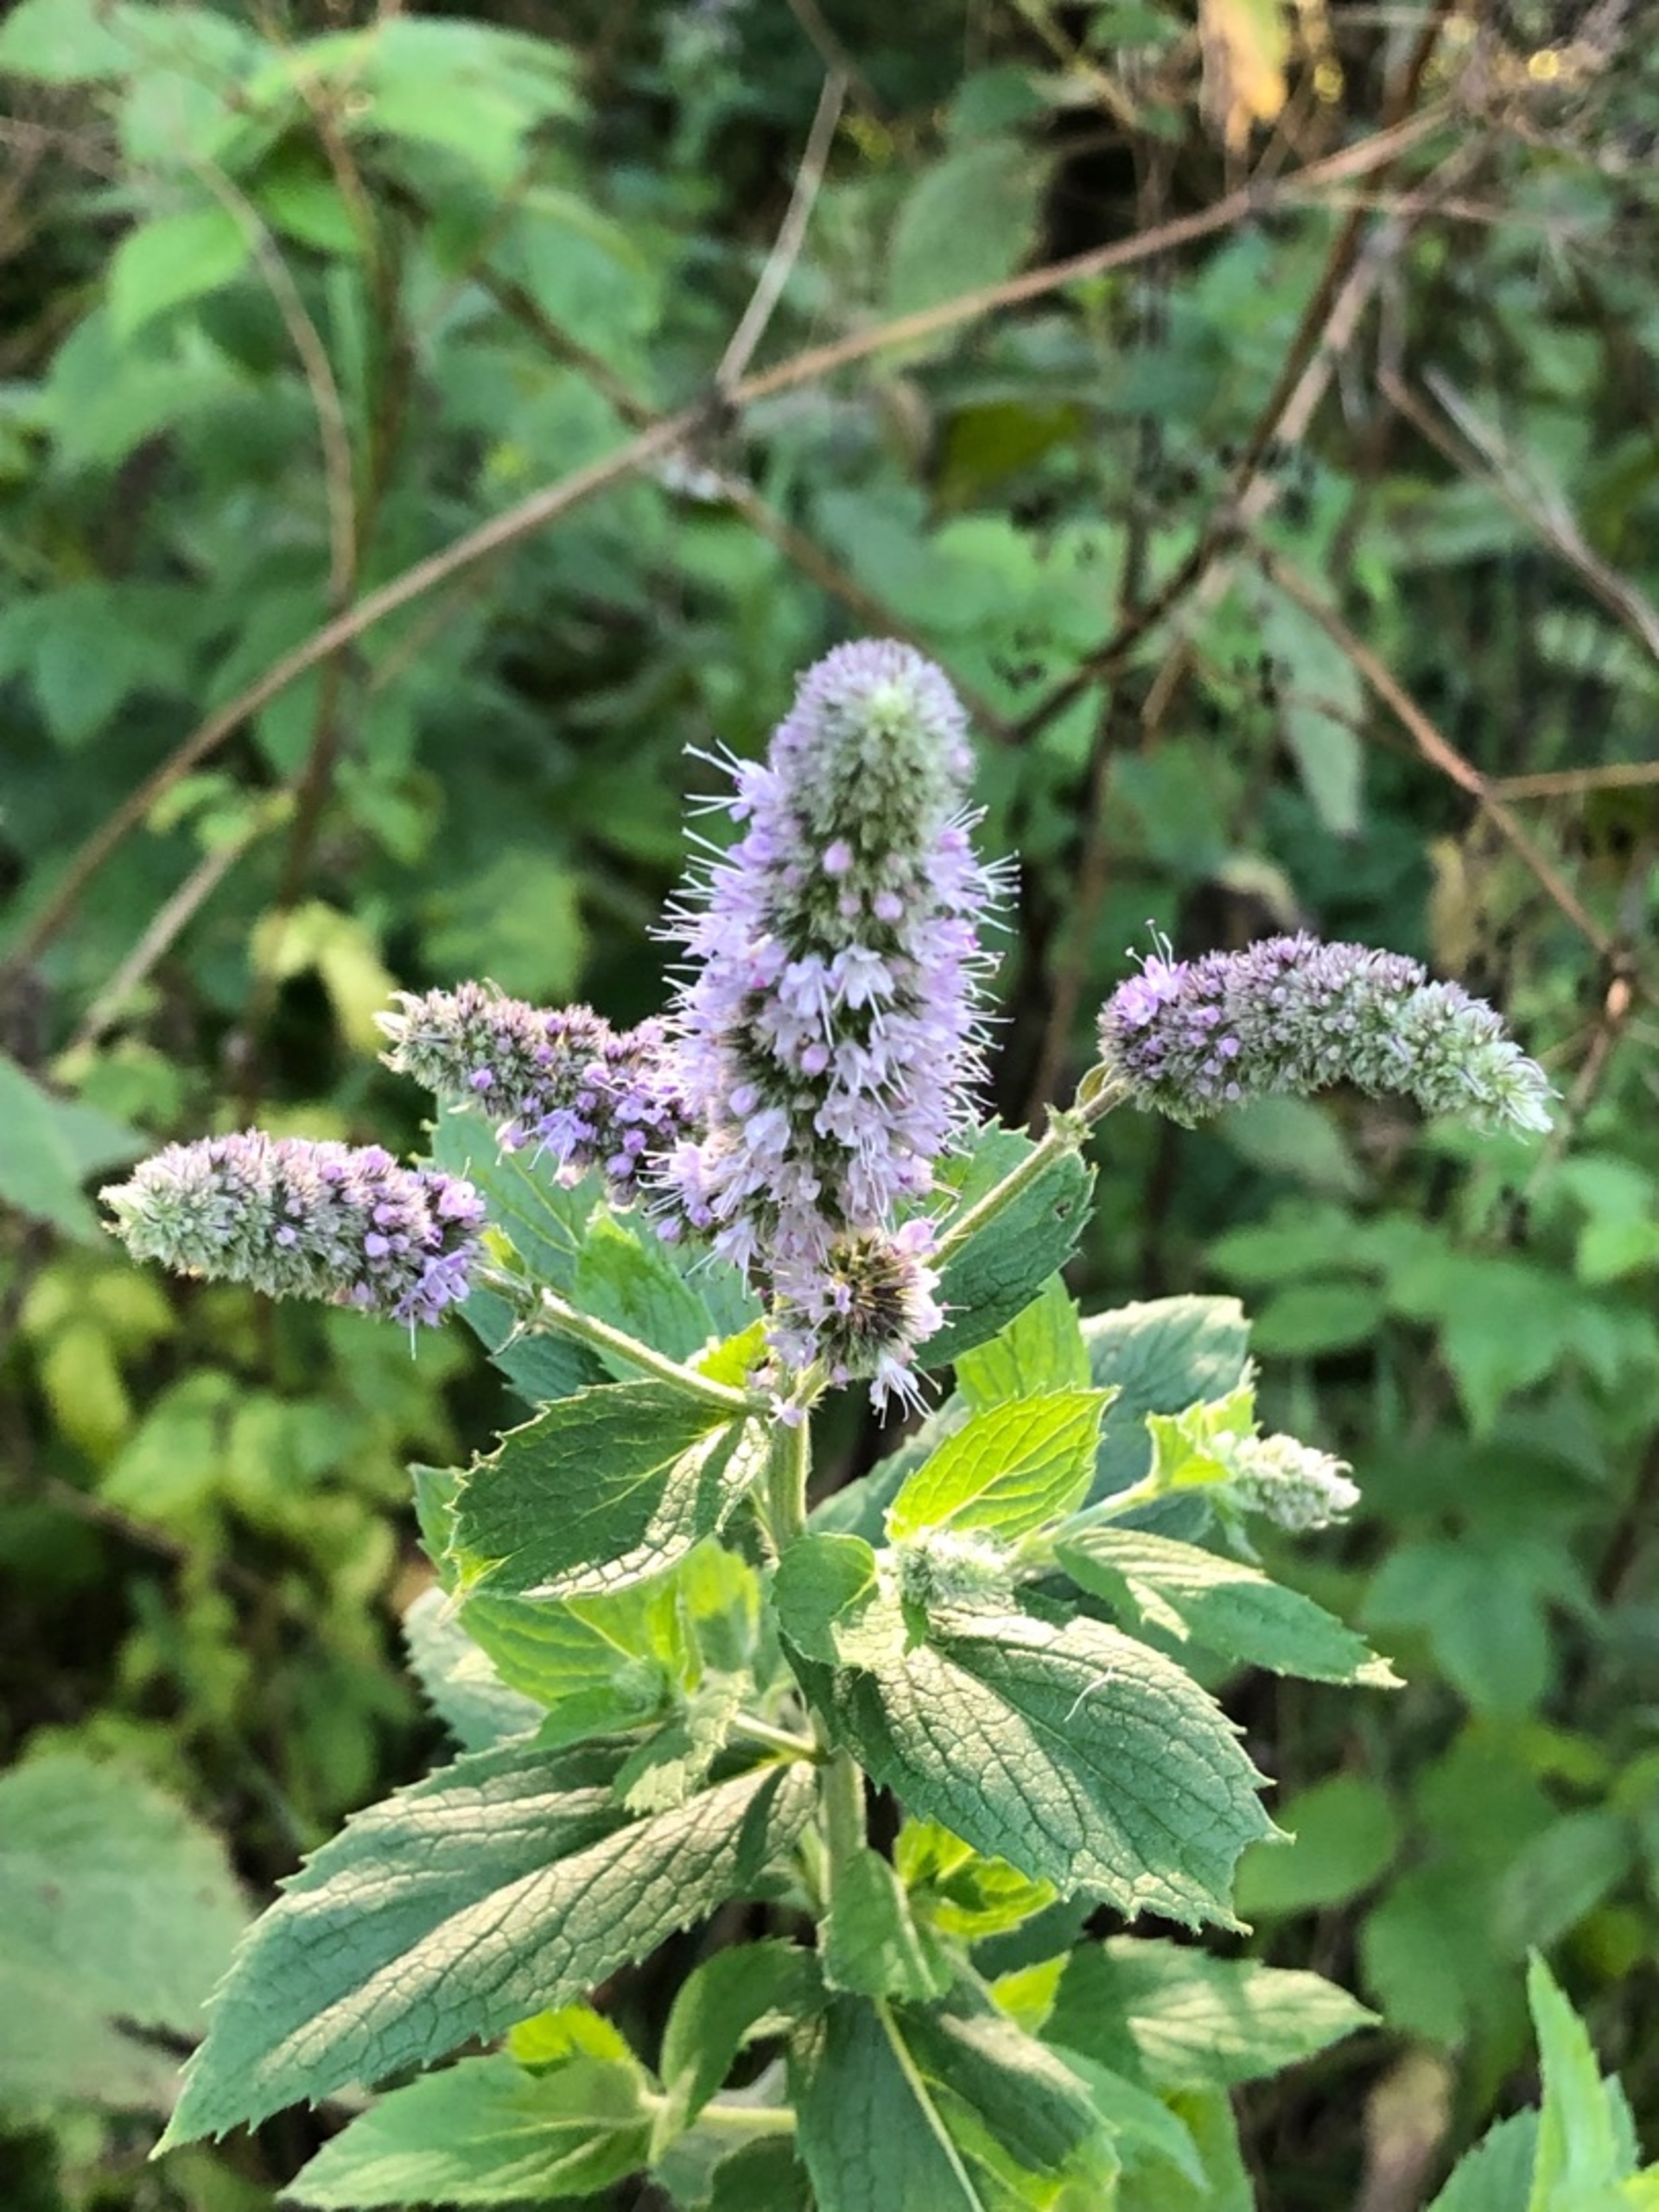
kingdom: Plantae
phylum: Tracheophyta
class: Magnoliopsida
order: Lamiales
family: Lamiaceae
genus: Mentha
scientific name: Mentha
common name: Grå mynte × grøn mynte
